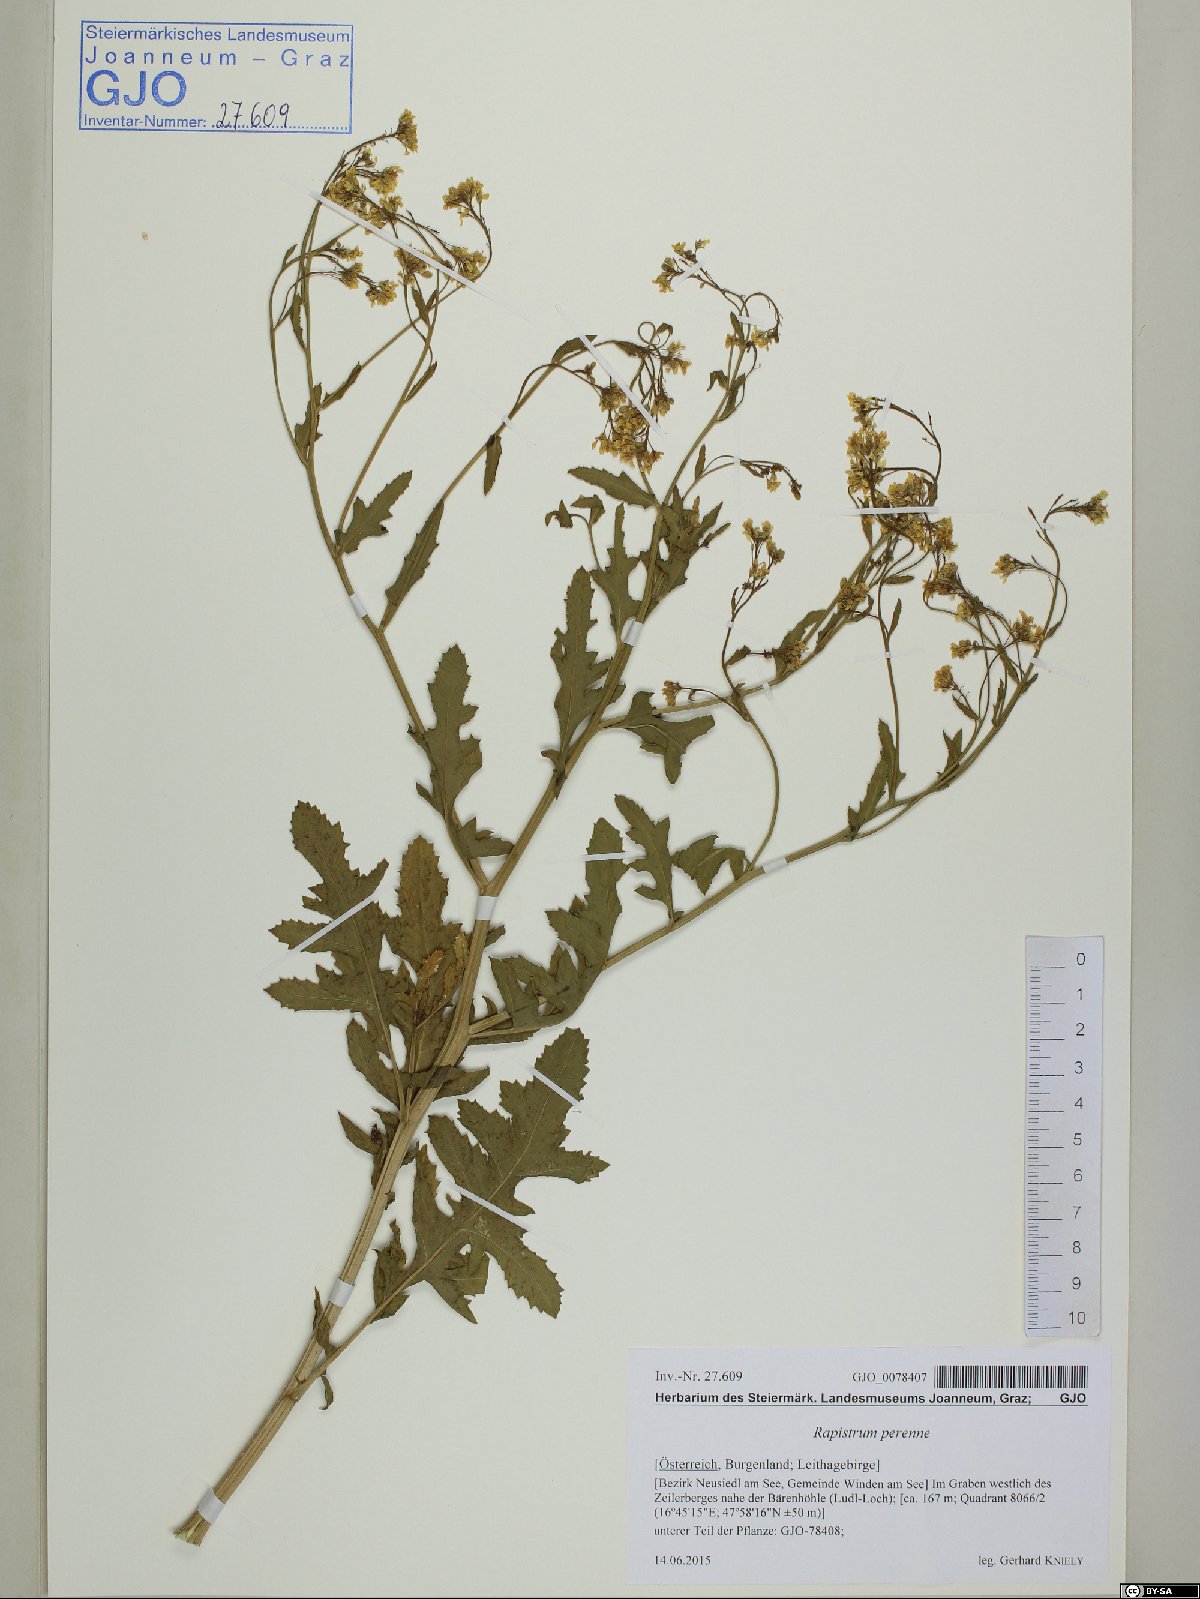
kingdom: Plantae
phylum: Tracheophyta
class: Magnoliopsida
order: Brassicales
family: Brassicaceae
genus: Rapistrum
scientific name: Rapistrum perenne
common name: Steppe cabbage
